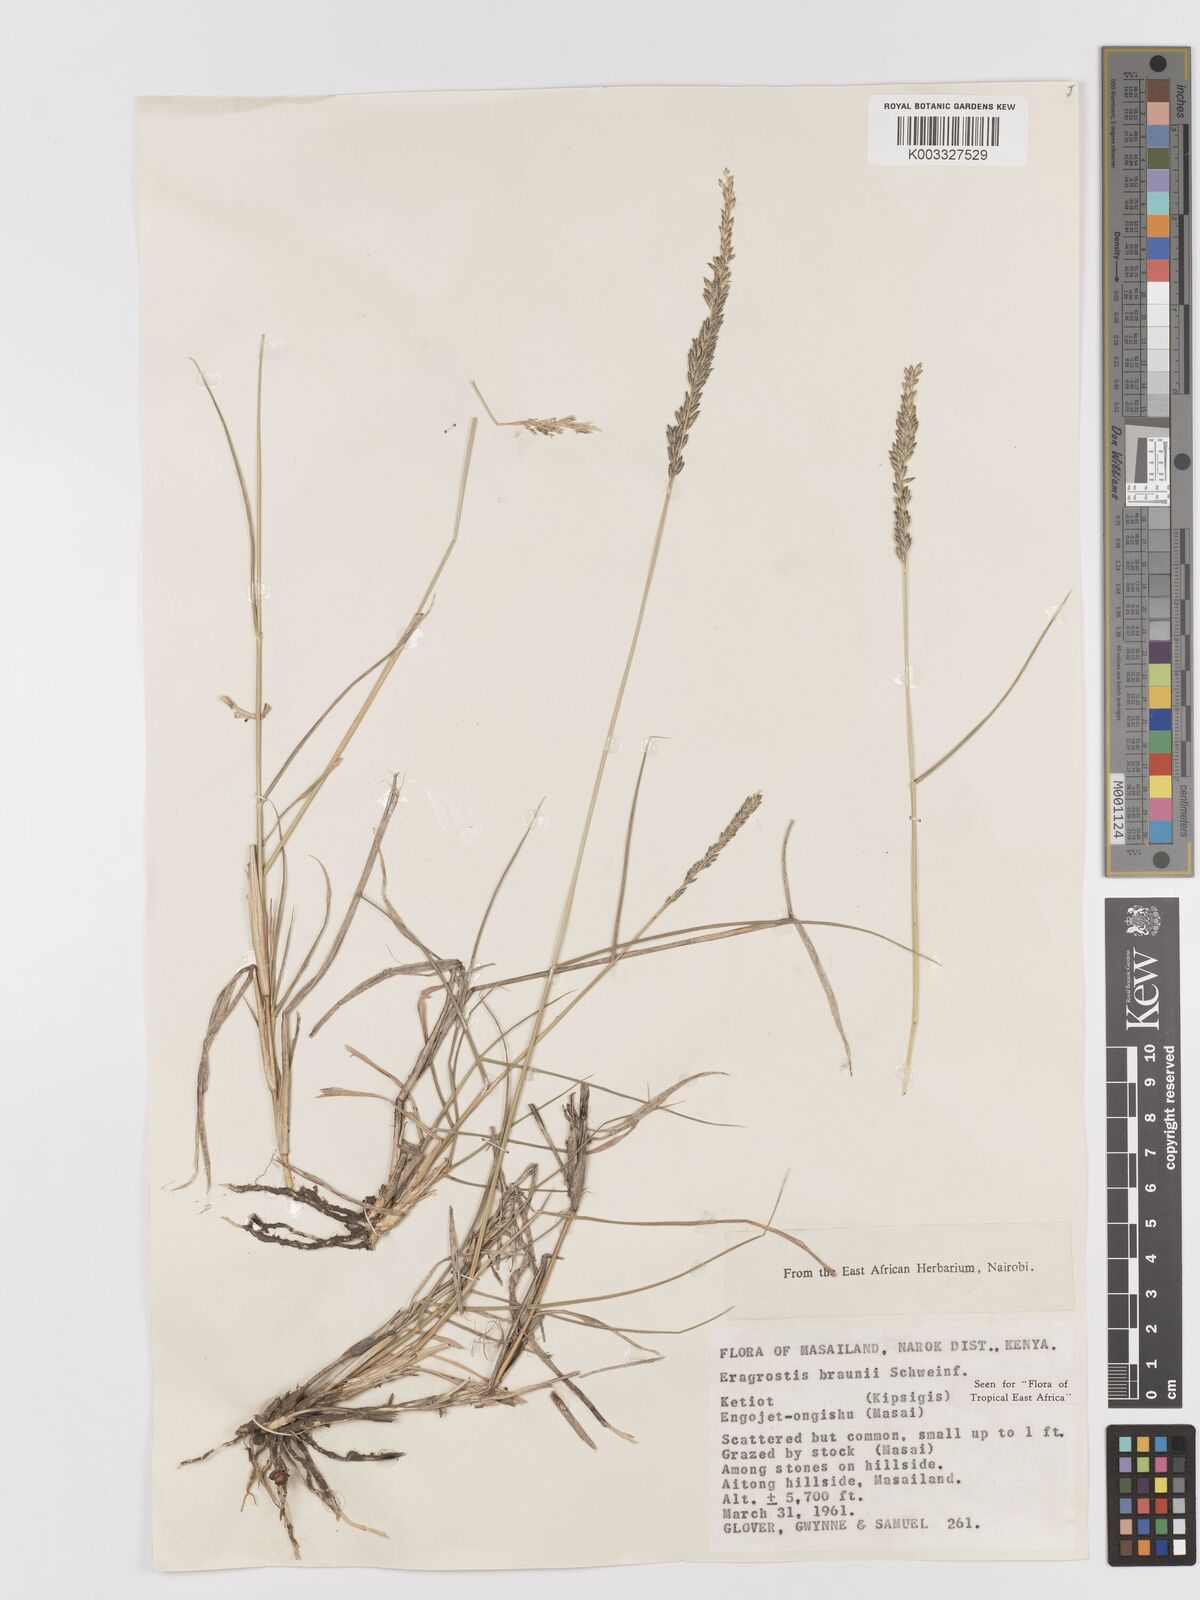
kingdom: Plantae
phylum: Tracheophyta
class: Liliopsida
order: Poales
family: Poaceae
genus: Eragrostis
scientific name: Eragrostis braunii
